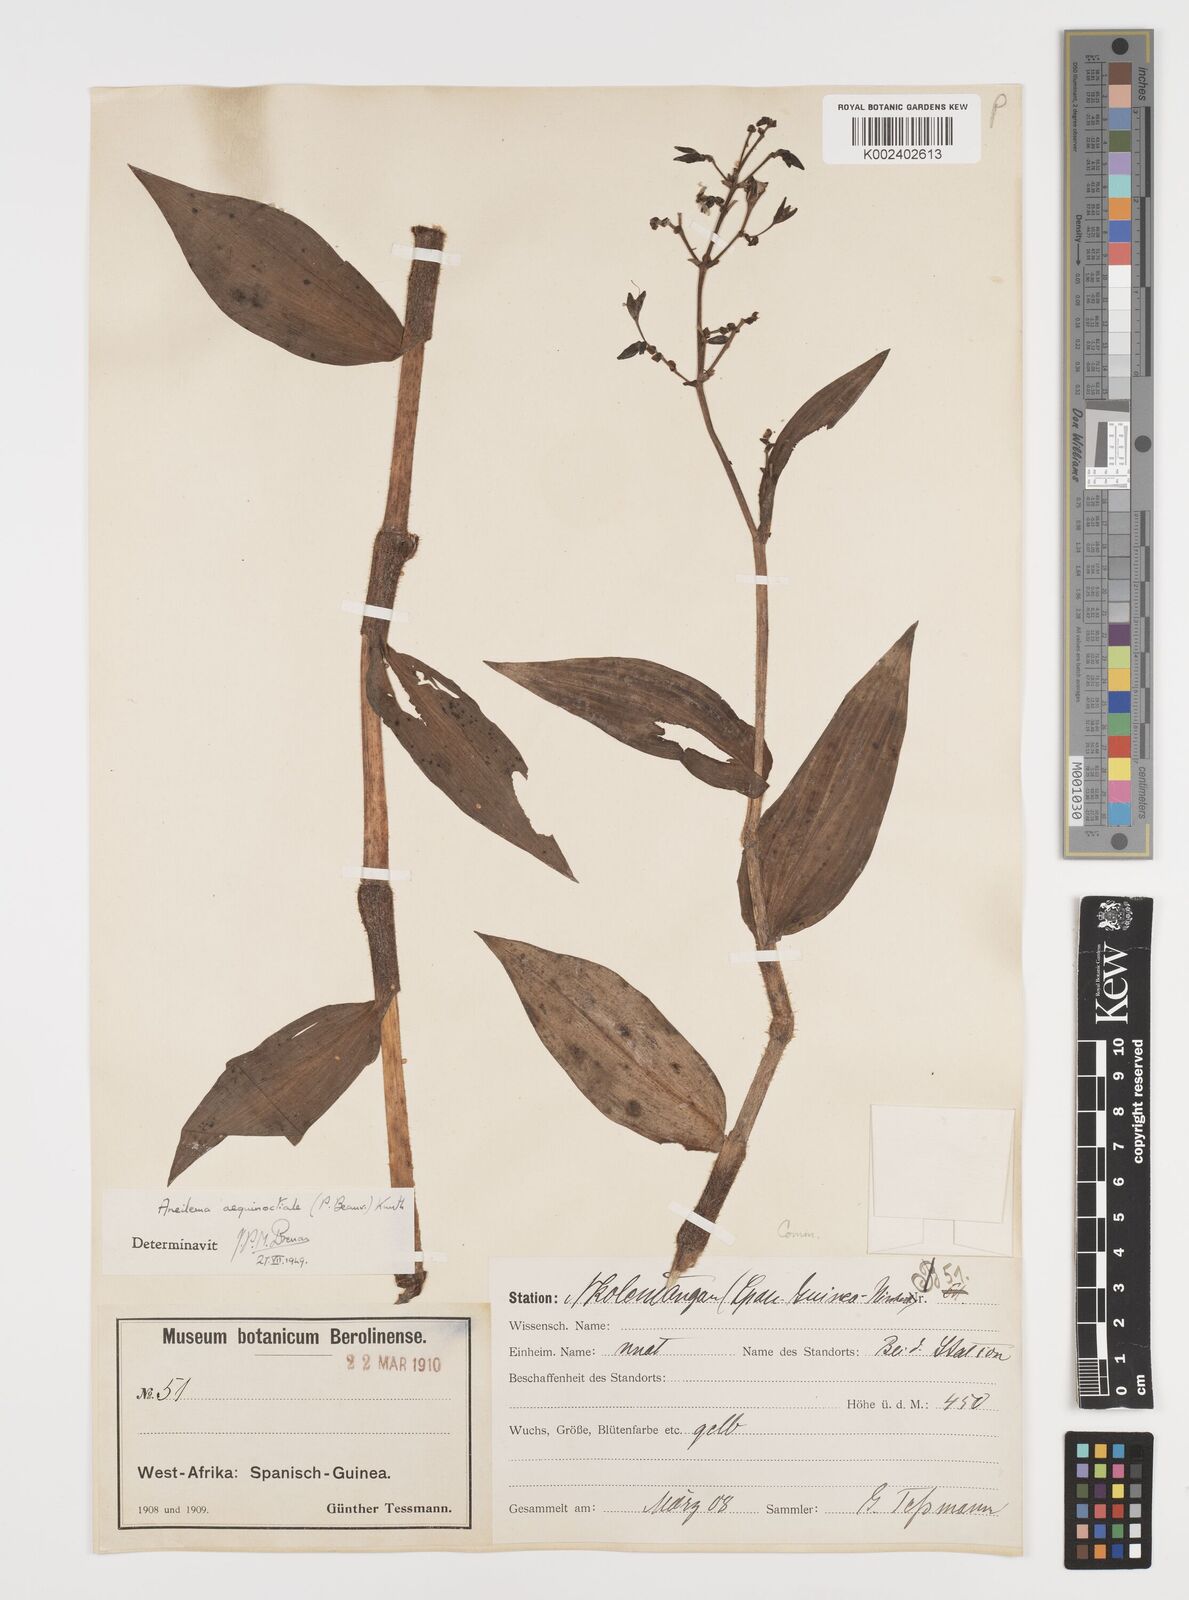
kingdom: Plantae
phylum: Tracheophyta
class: Liliopsida
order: Commelinales
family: Commelinaceae
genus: Aneilema
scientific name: Aneilema aequinoctiale
